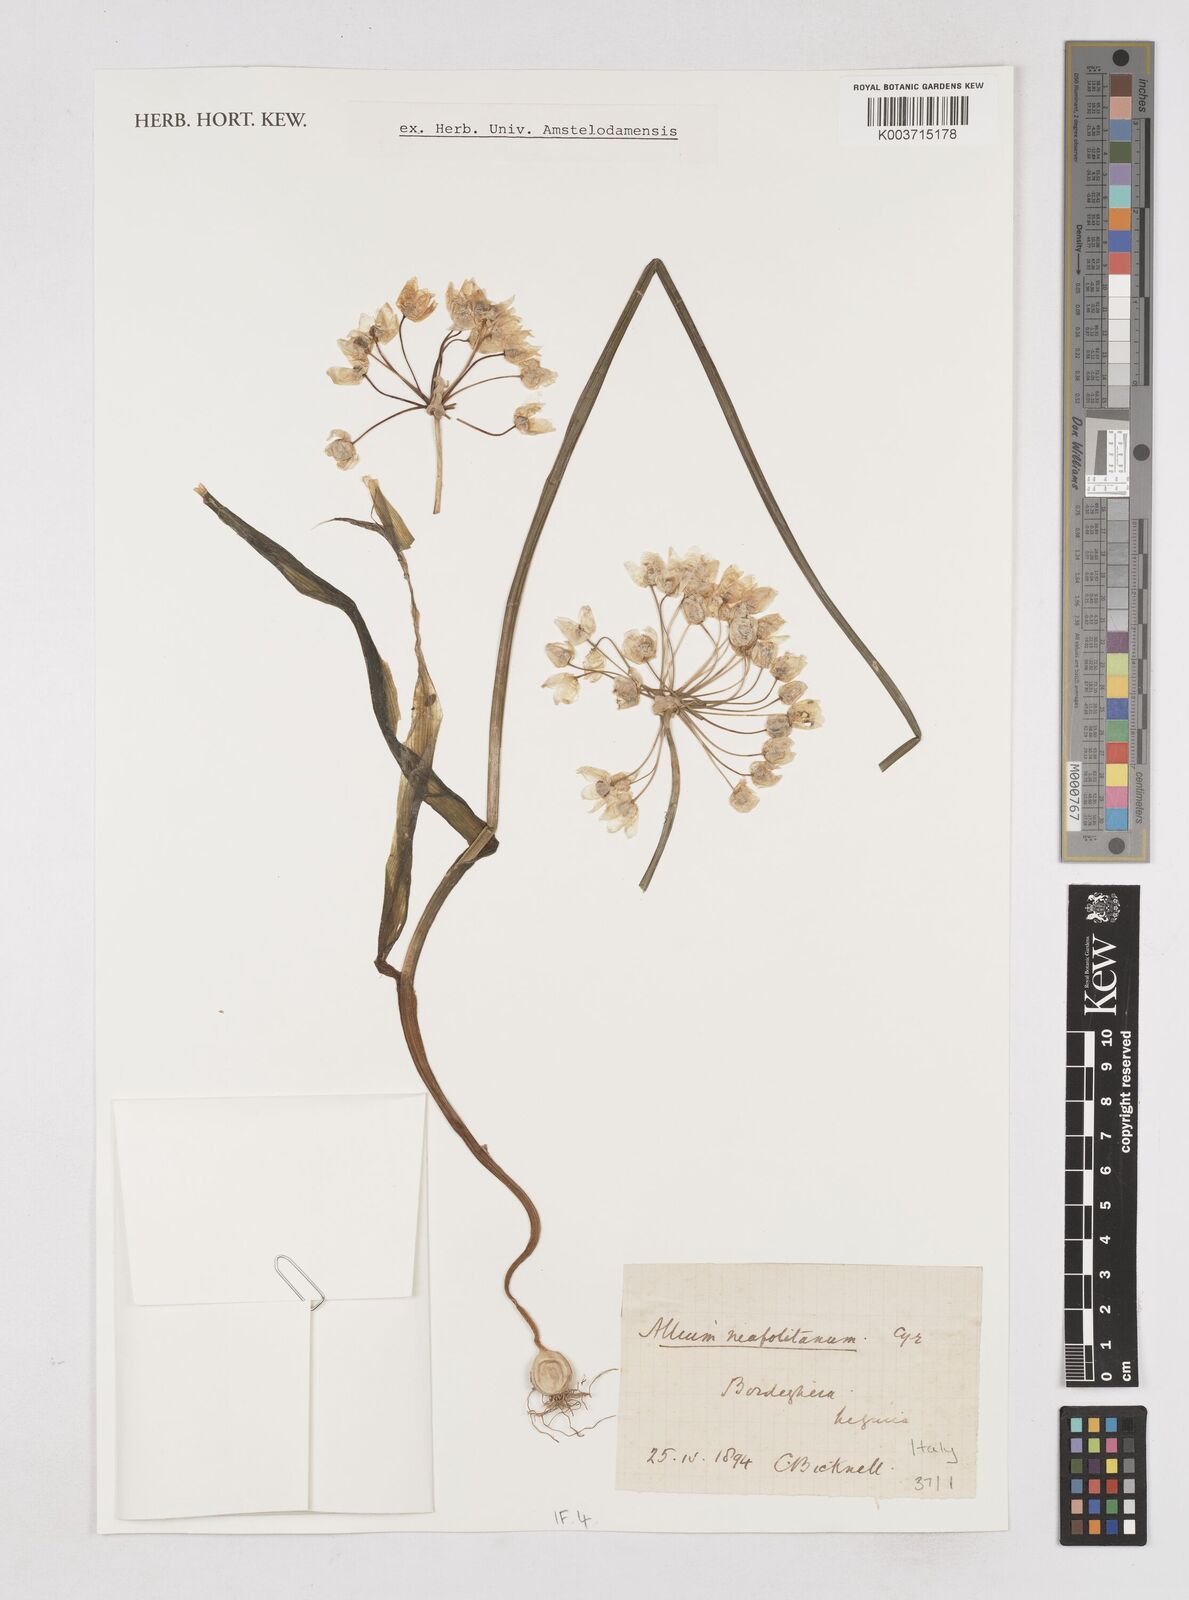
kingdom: Plantae
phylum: Tracheophyta
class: Liliopsida
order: Asparagales
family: Amaryllidaceae
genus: Allium
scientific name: Allium neapolitanum
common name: Neapolitan garlic
